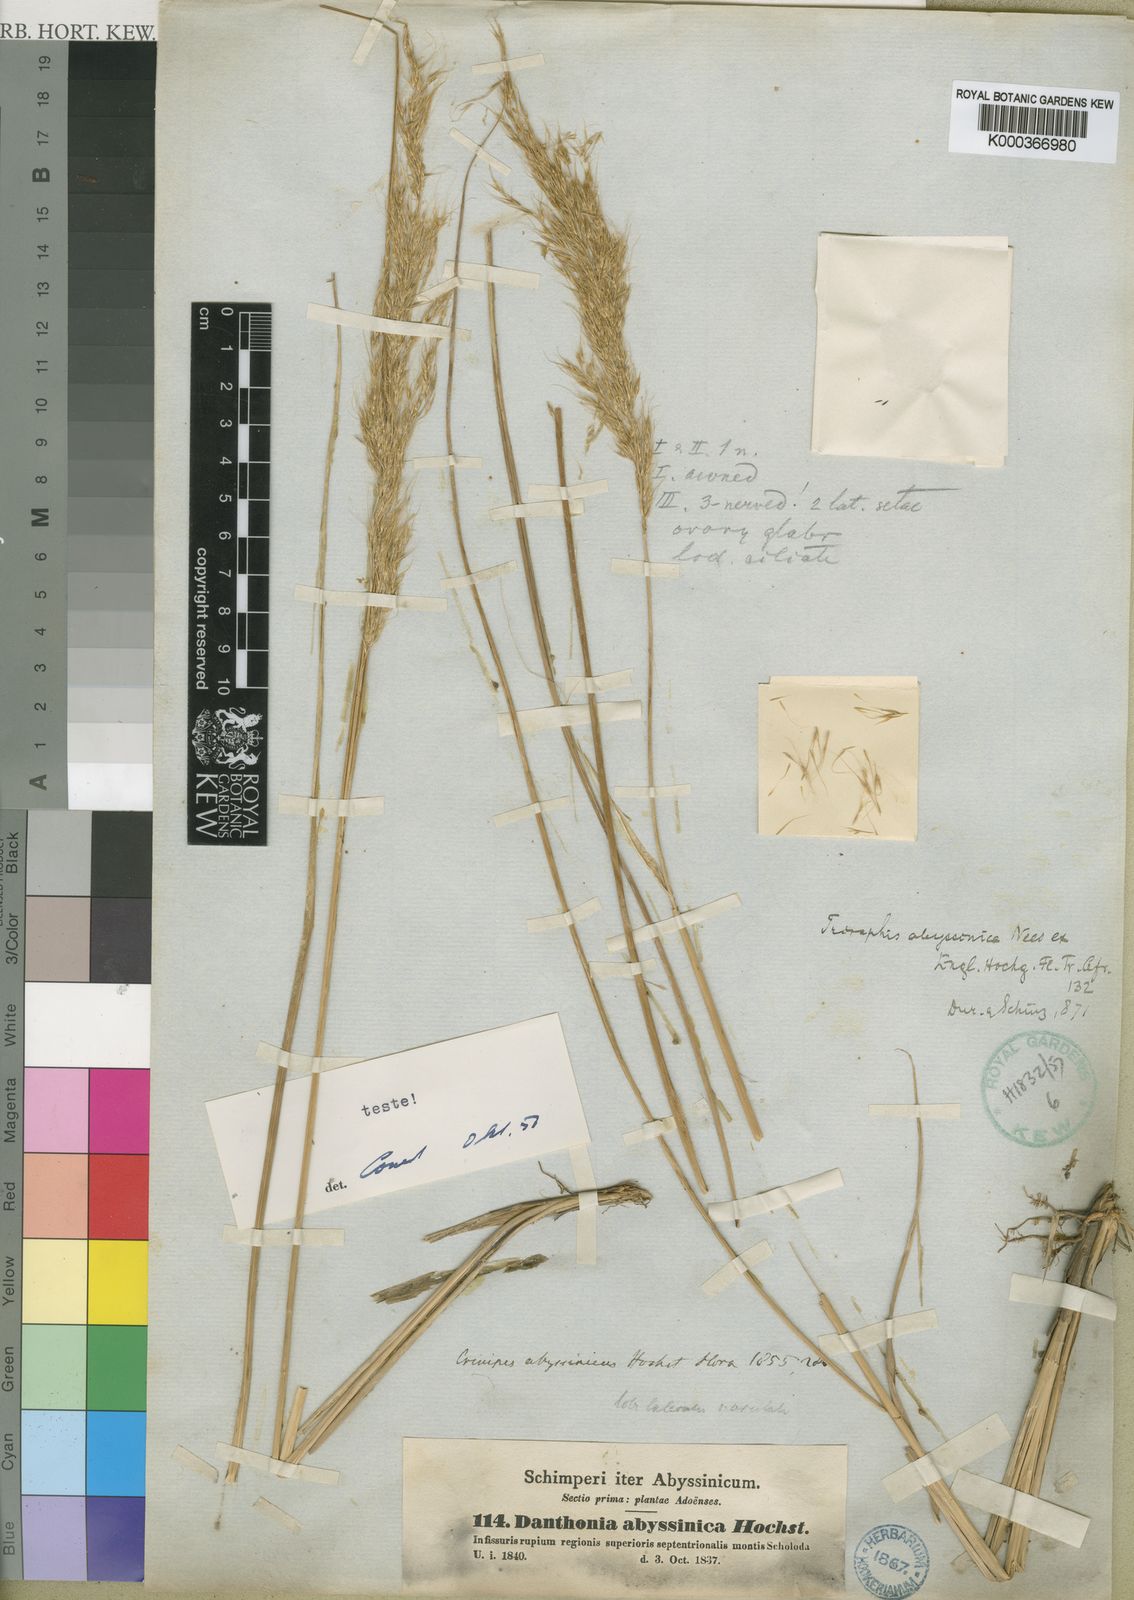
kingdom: Plantae
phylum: Tracheophyta
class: Liliopsida
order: Poales
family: Poaceae
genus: Crinipes
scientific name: Crinipes abyssinicus
